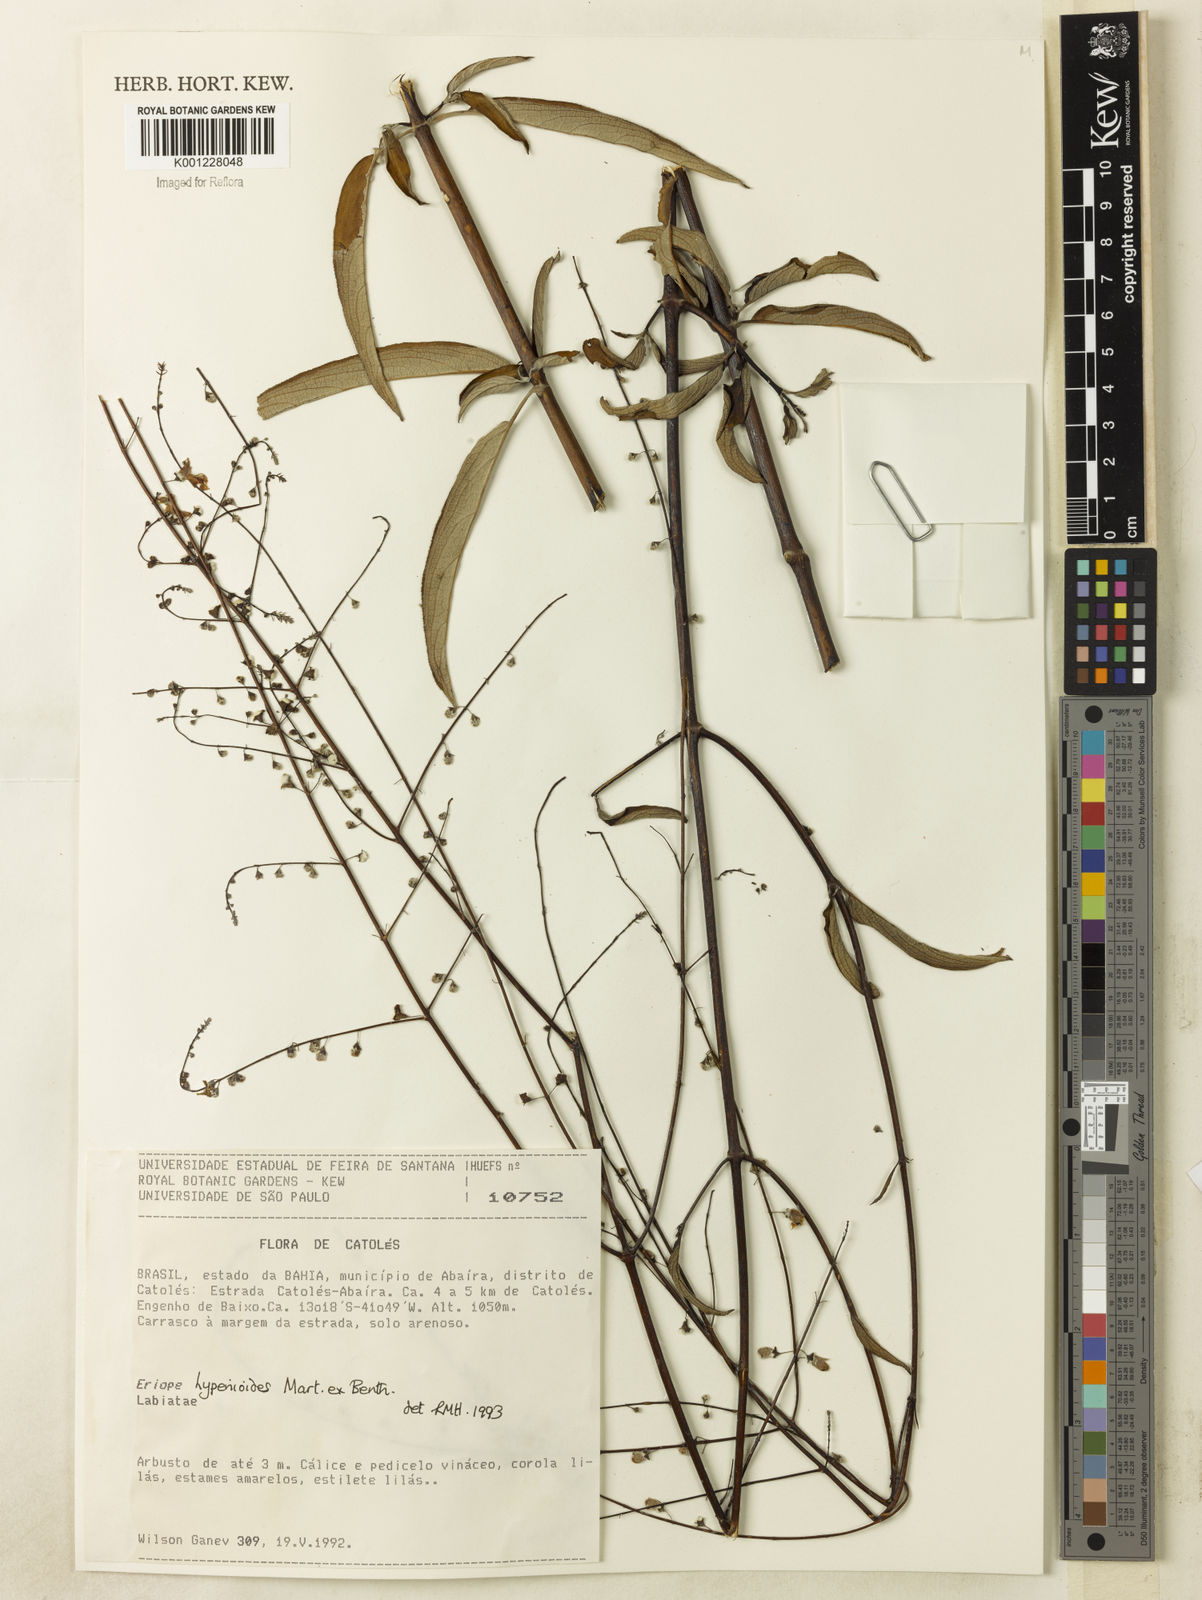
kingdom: Plantae
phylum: Tracheophyta
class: Magnoliopsida
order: Lamiales
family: Lamiaceae
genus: Eriope
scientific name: Eriope hypenioides
